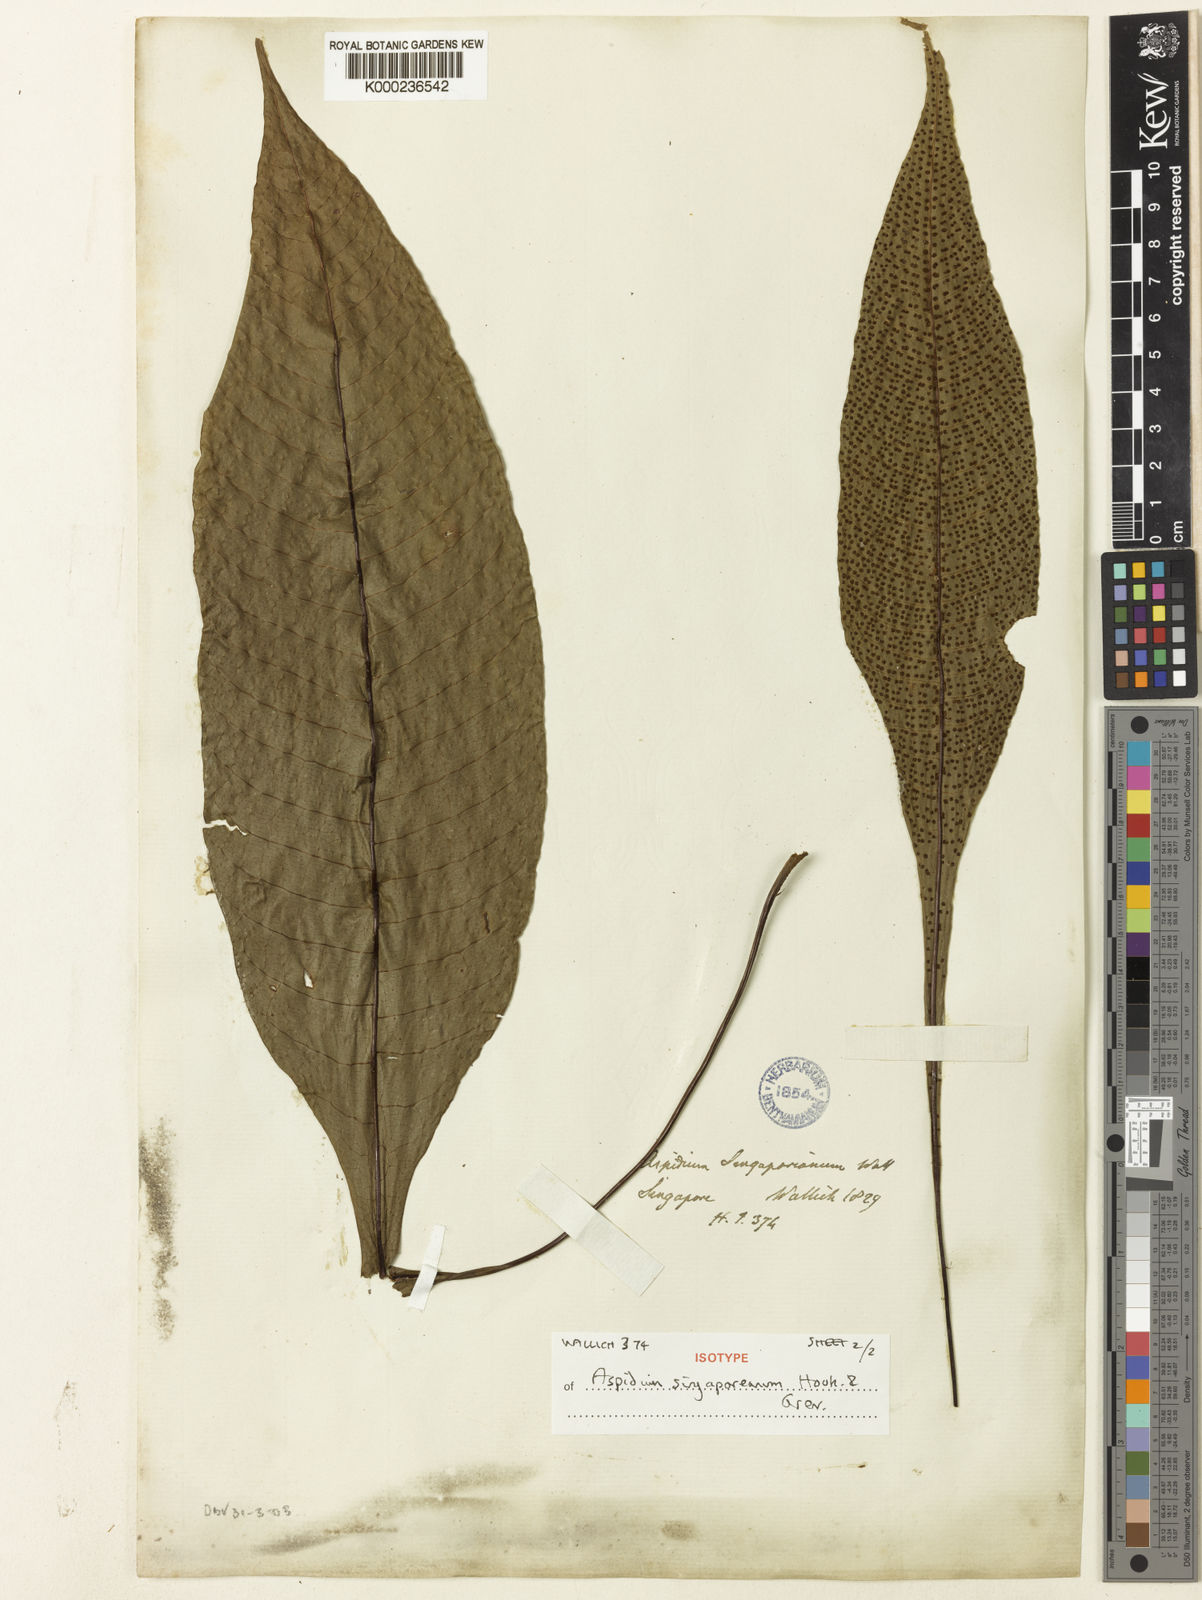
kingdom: Plantae
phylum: Tracheophyta
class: Polypodiopsida
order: Polypodiales
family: Tectariaceae
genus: Tectaria
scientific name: Tectaria
